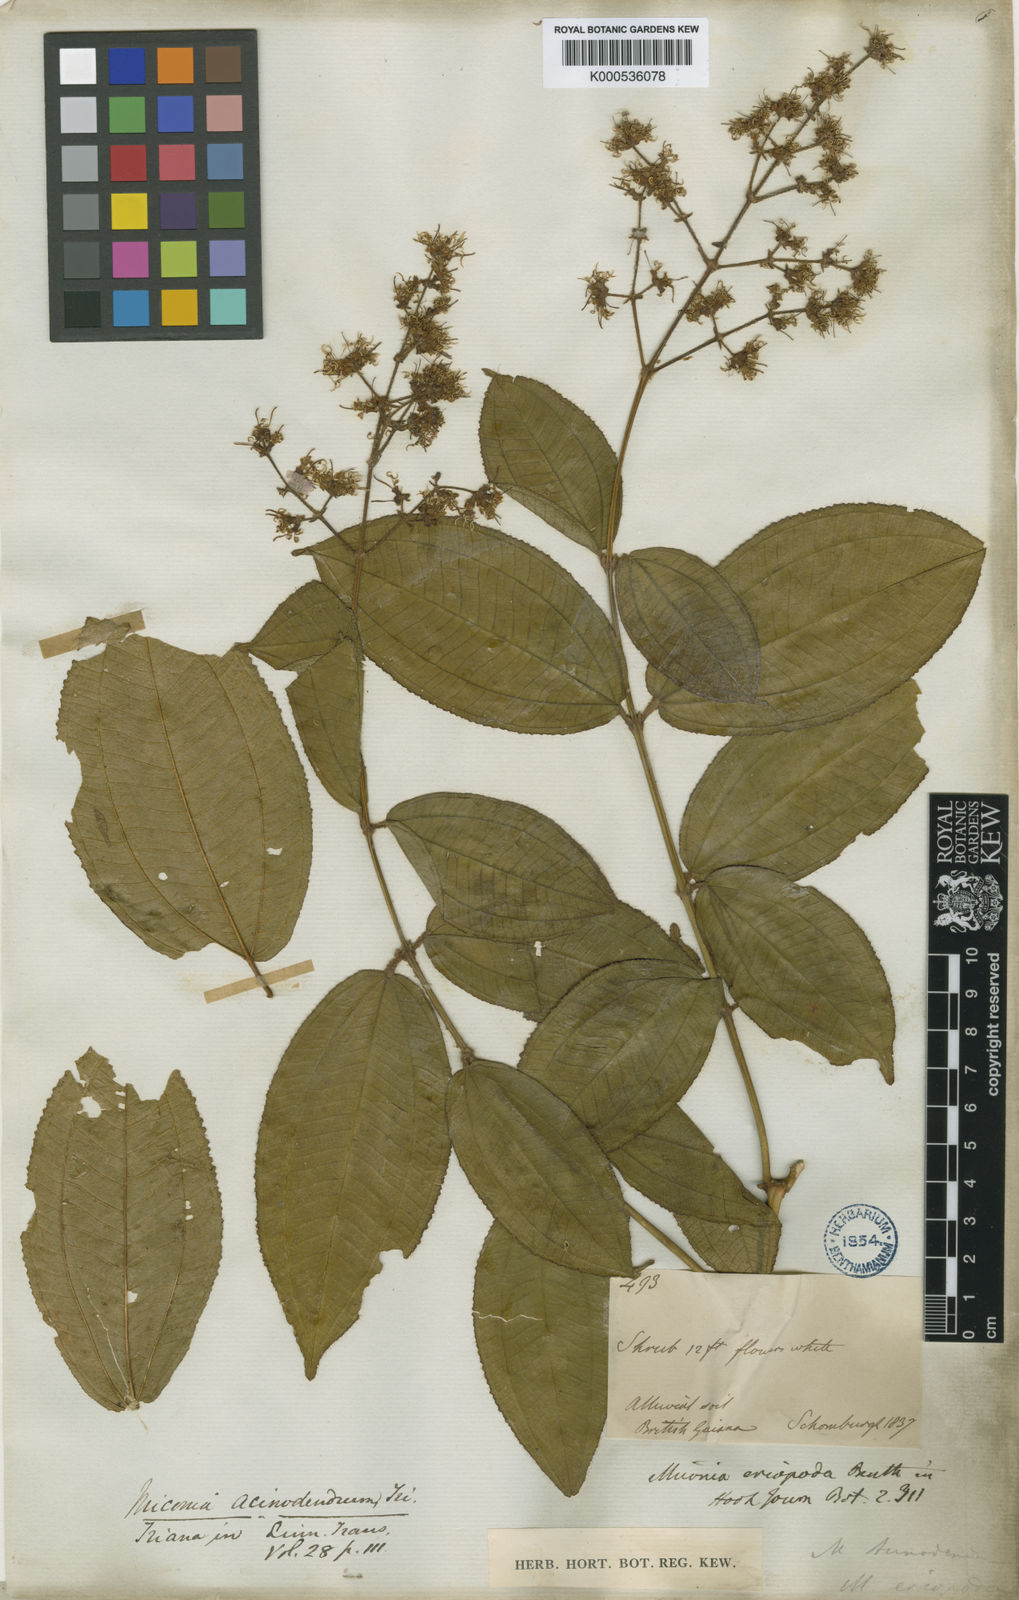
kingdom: Plantae
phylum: Tracheophyta
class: Magnoliopsida
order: Myrtales
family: Melastomataceae
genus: Miconia
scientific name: Miconia
